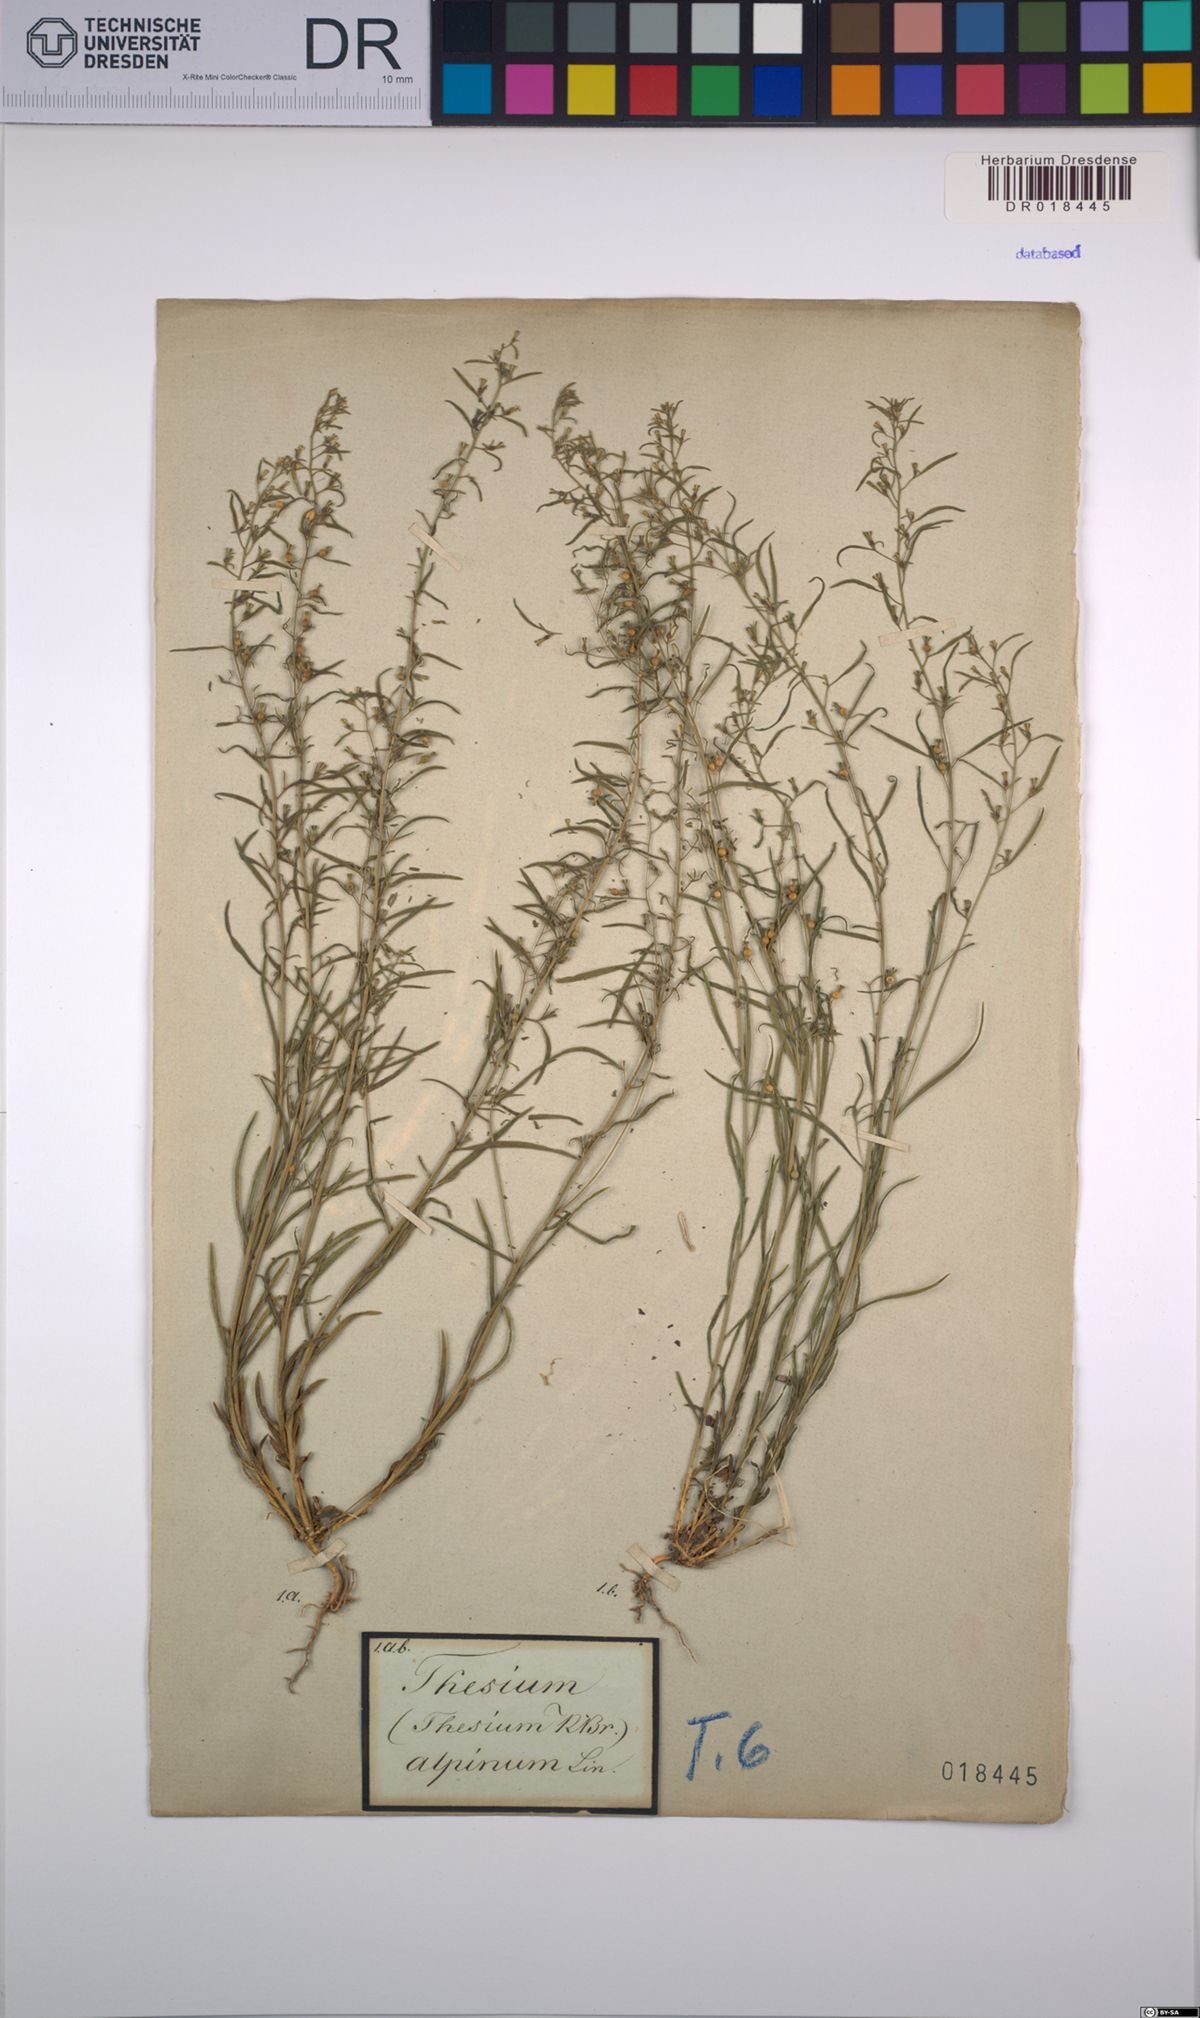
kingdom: Plantae
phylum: Tracheophyta
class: Magnoliopsida
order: Santalales
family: Thesiaceae
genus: Thesium
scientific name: Thesium alpinum
